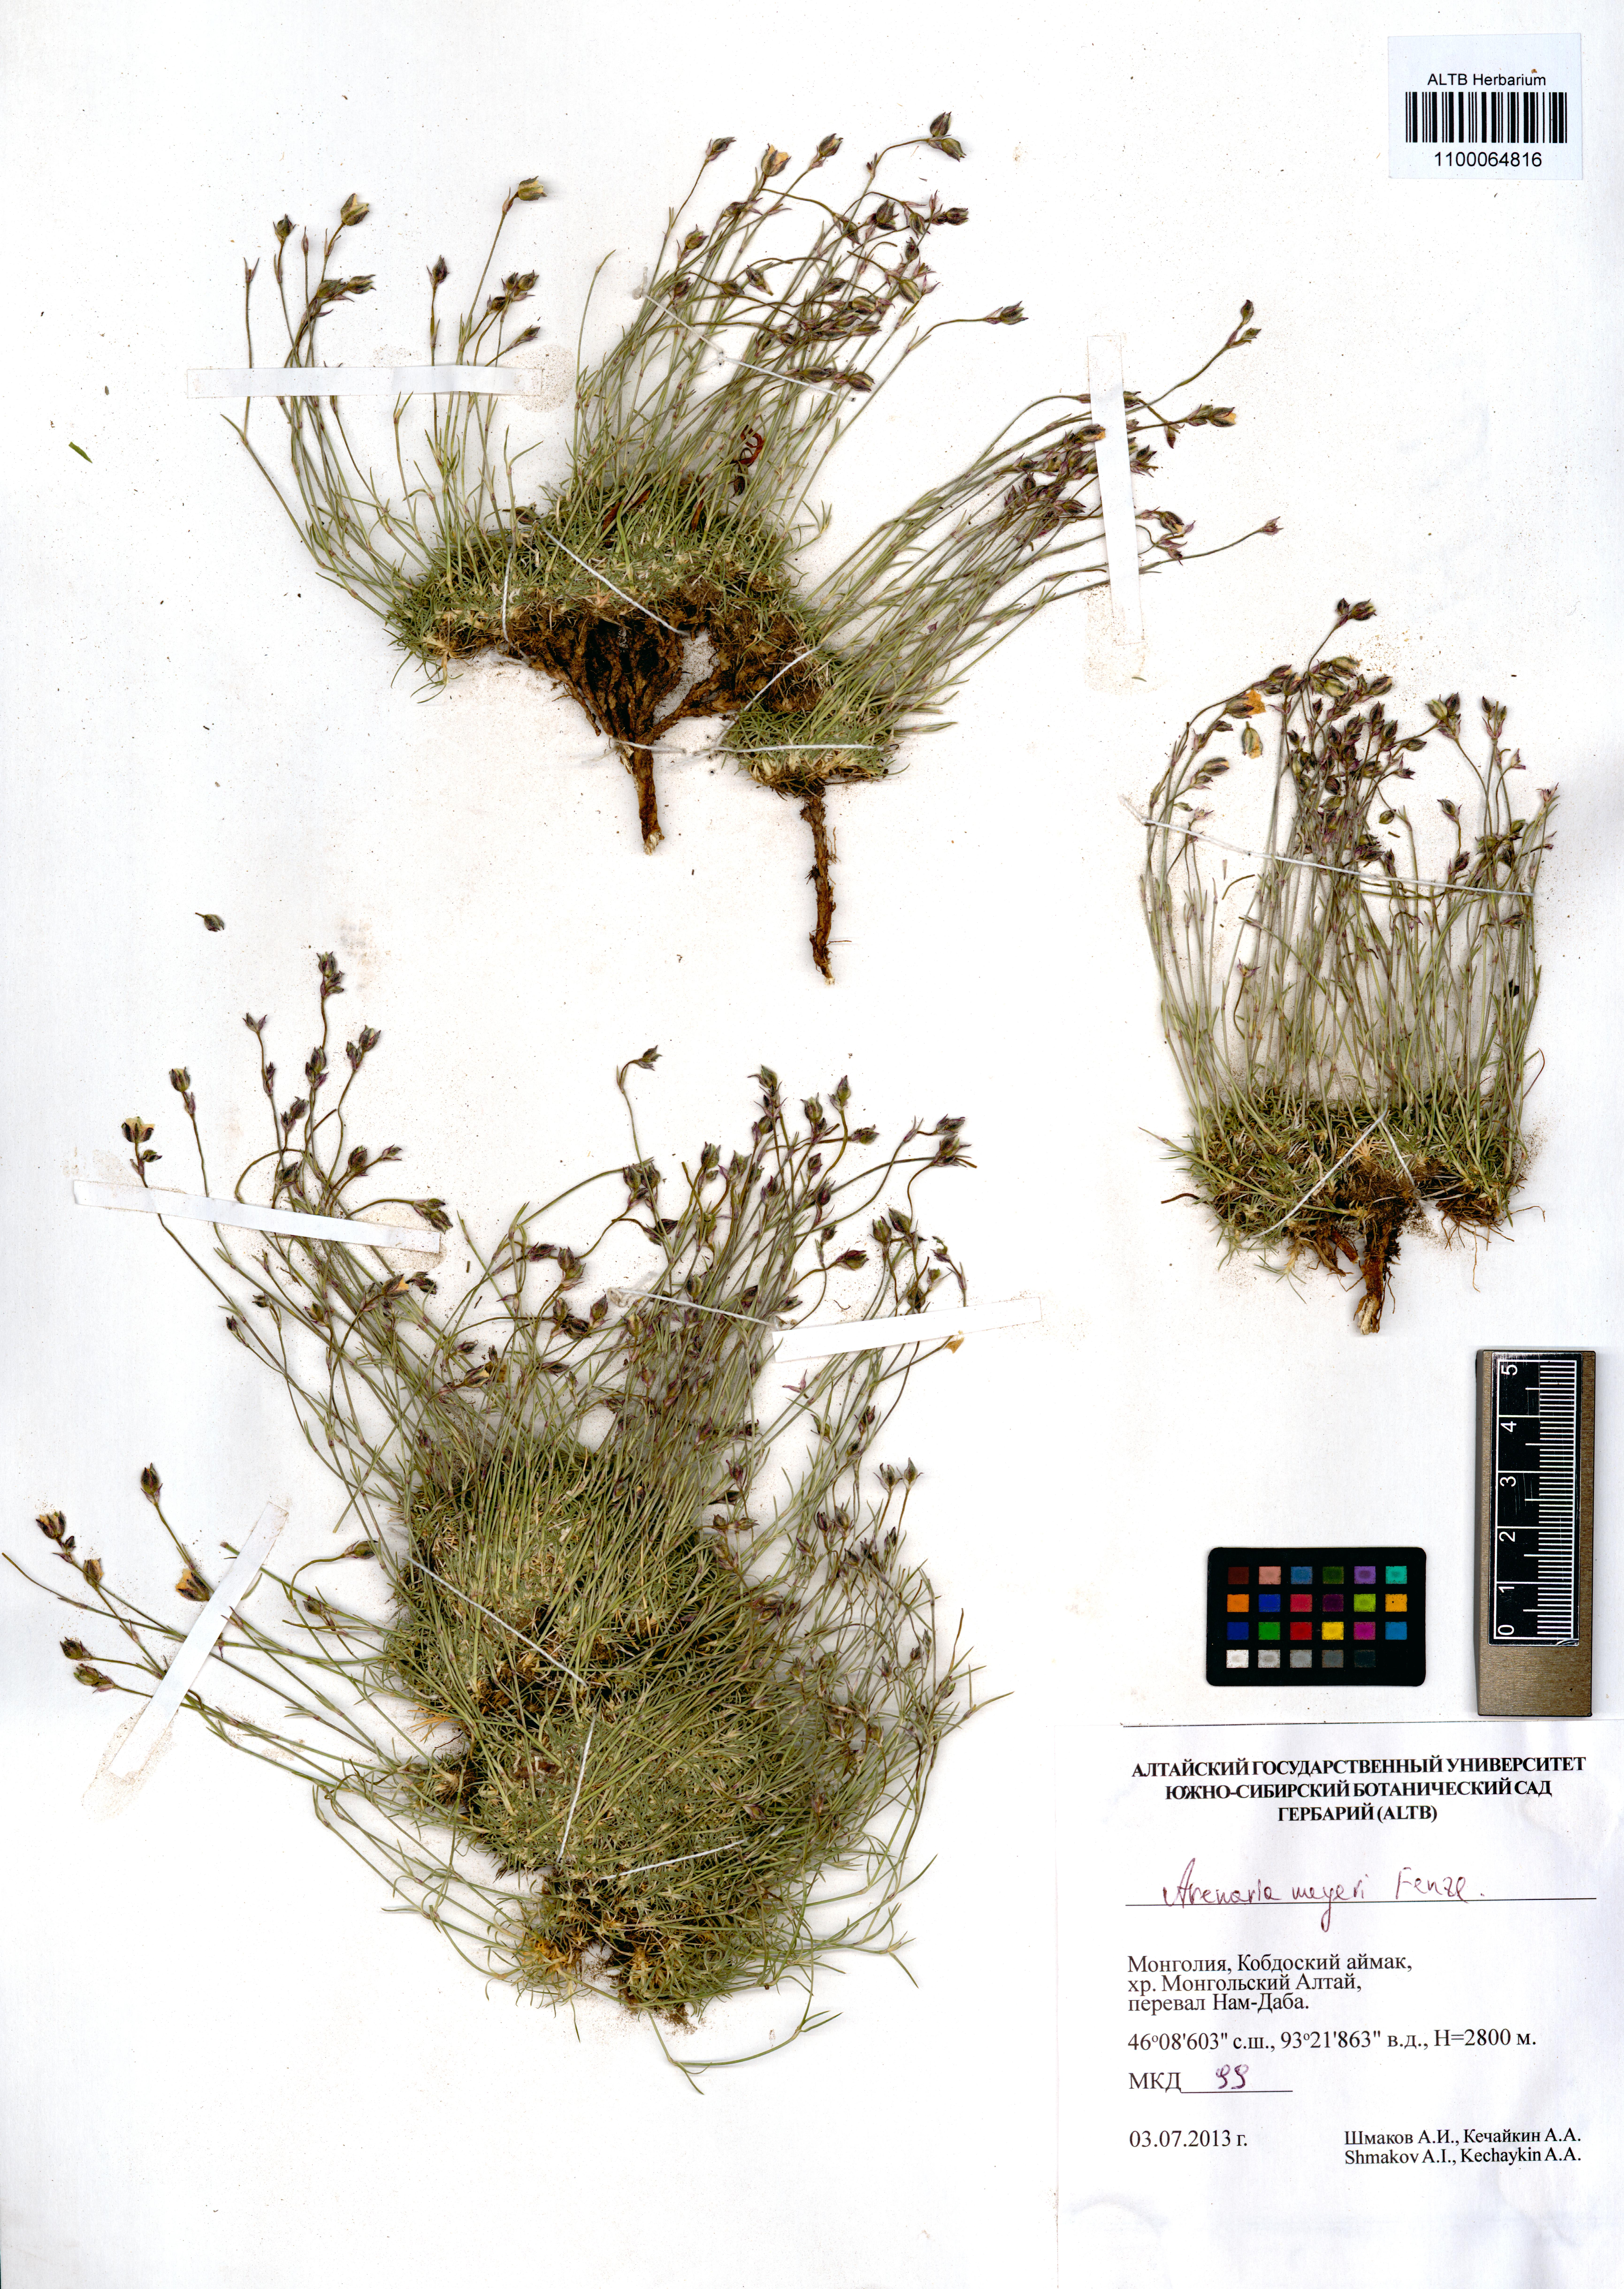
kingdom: Plantae
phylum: Tracheophyta
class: Magnoliopsida
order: Caryophyllales
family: Caryophyllaceae
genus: Eremogone
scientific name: Eremogone meyeri
